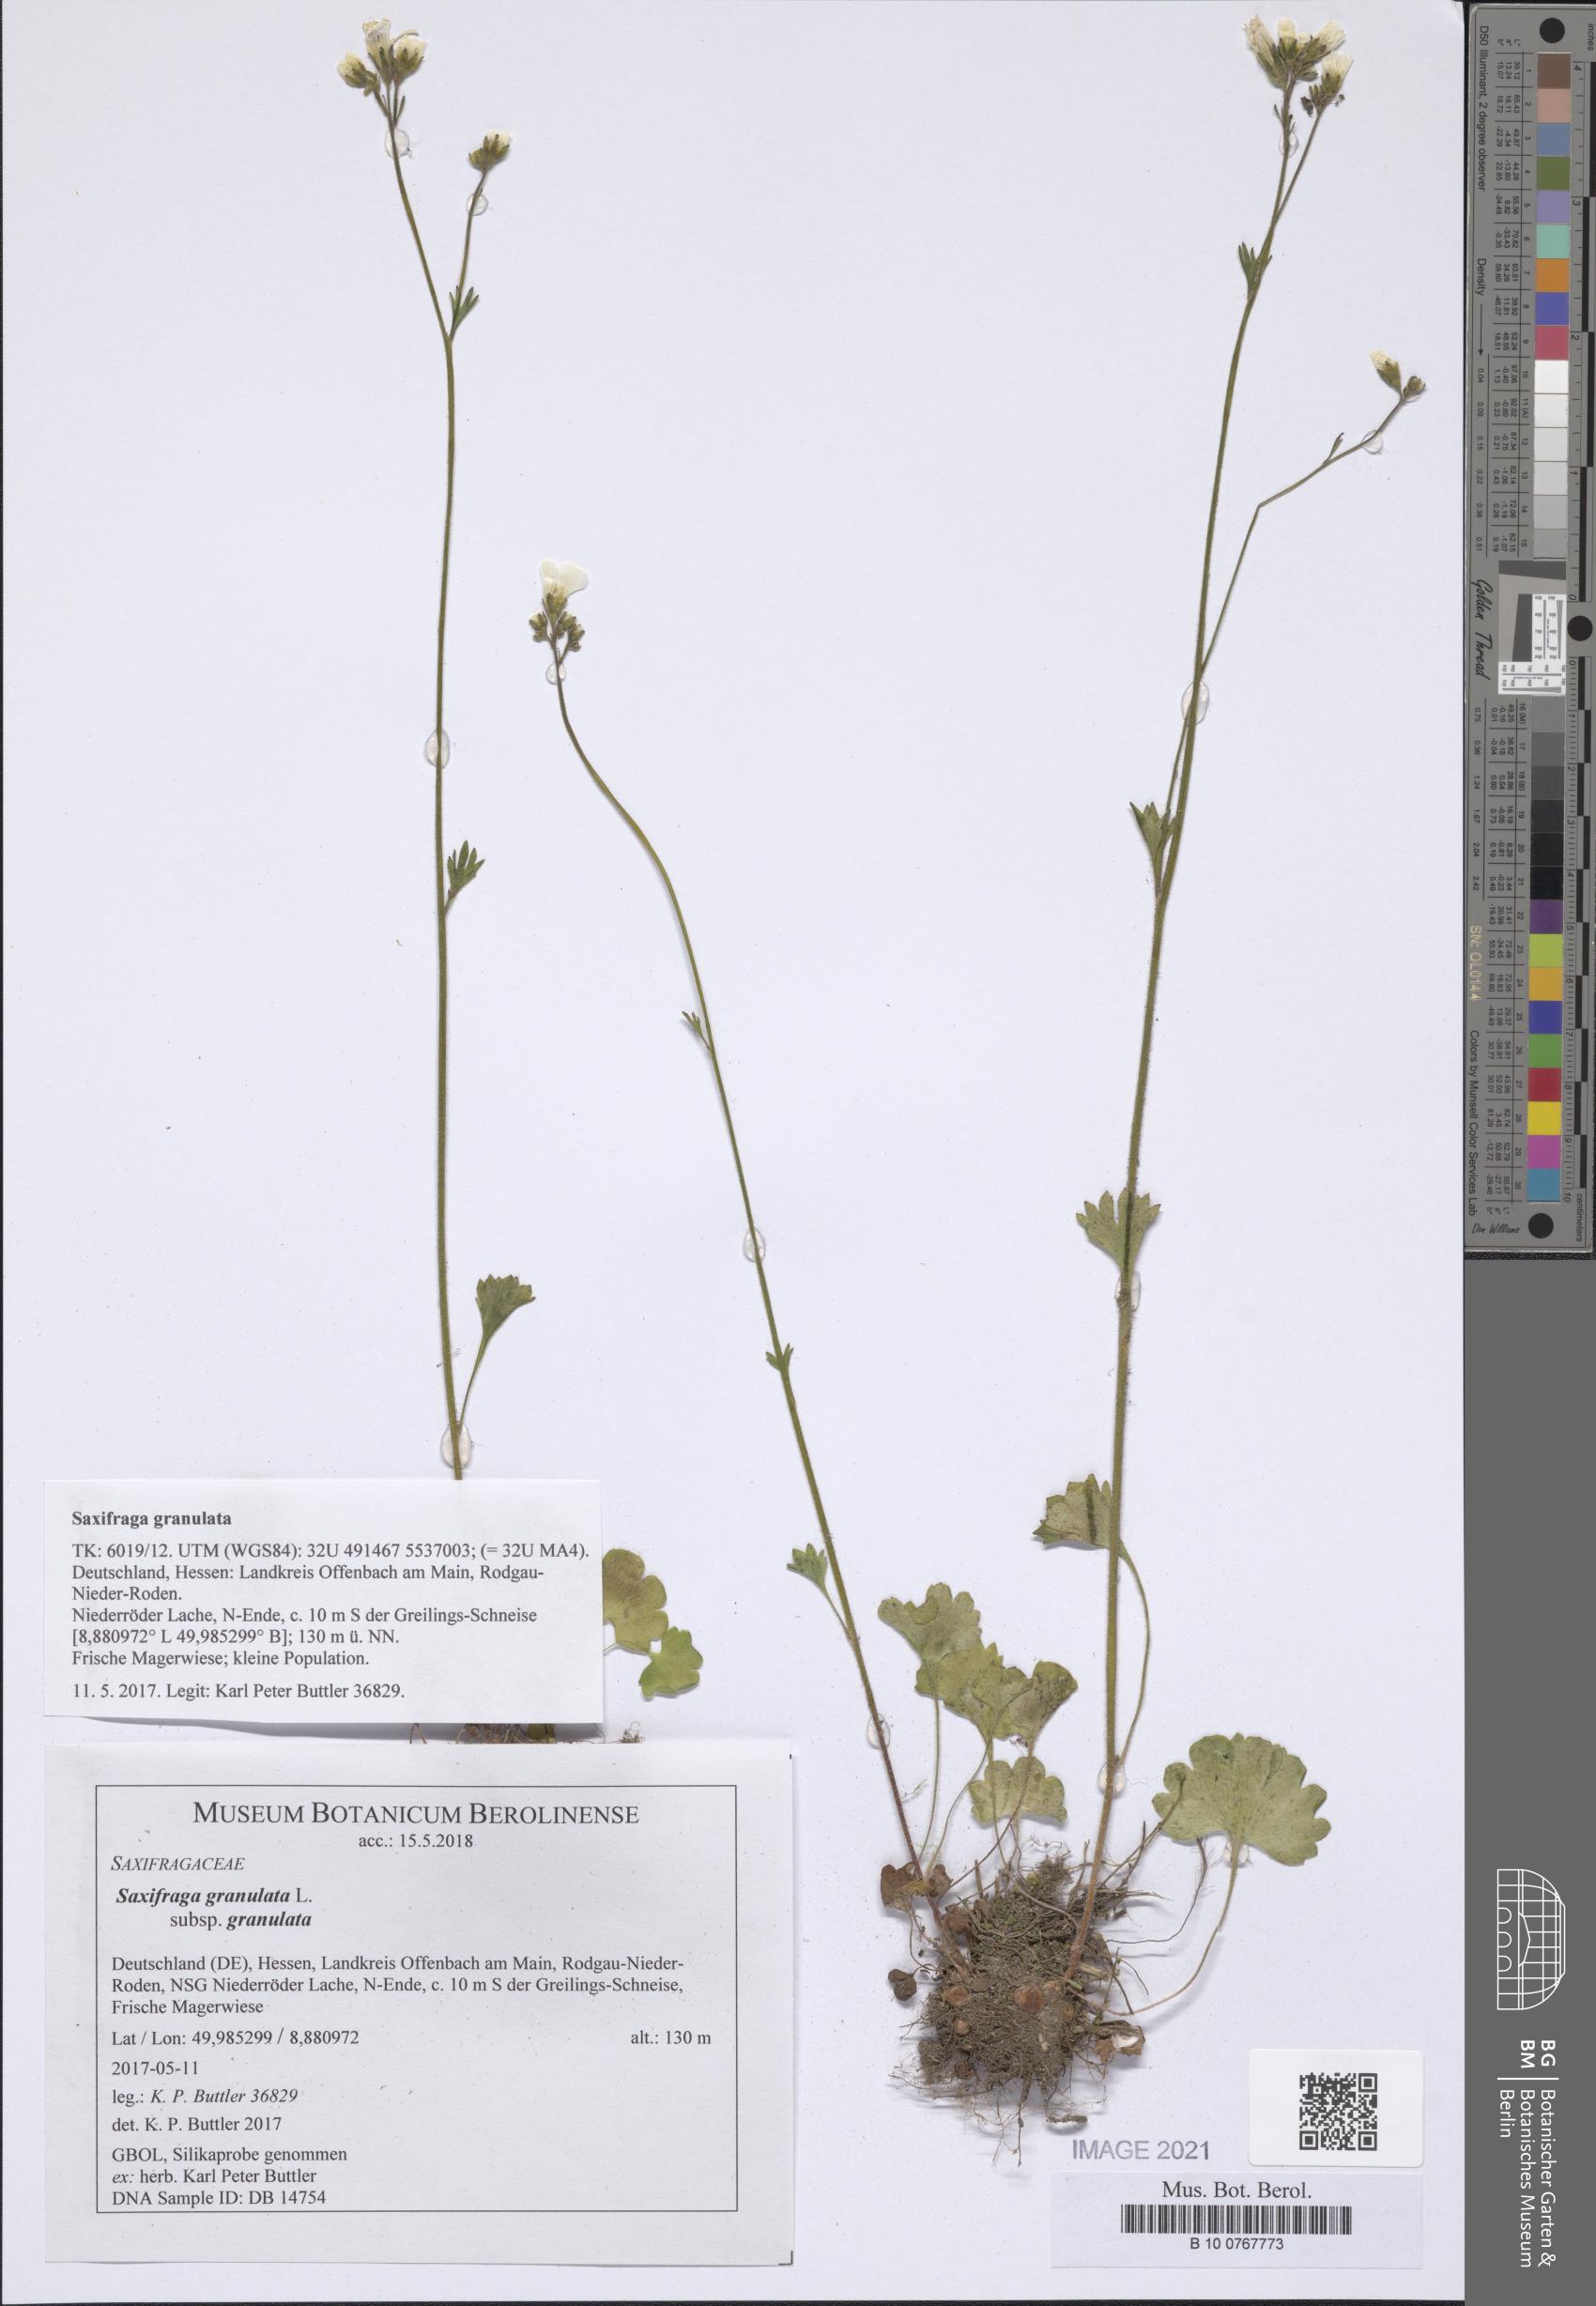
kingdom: Plantae
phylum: Tracheophyta
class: Magnoliopsida
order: Saxifragales
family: Saxifragaceae
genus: Saxifraga
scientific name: Saxifraga granulata
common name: Meadow saxifrage
